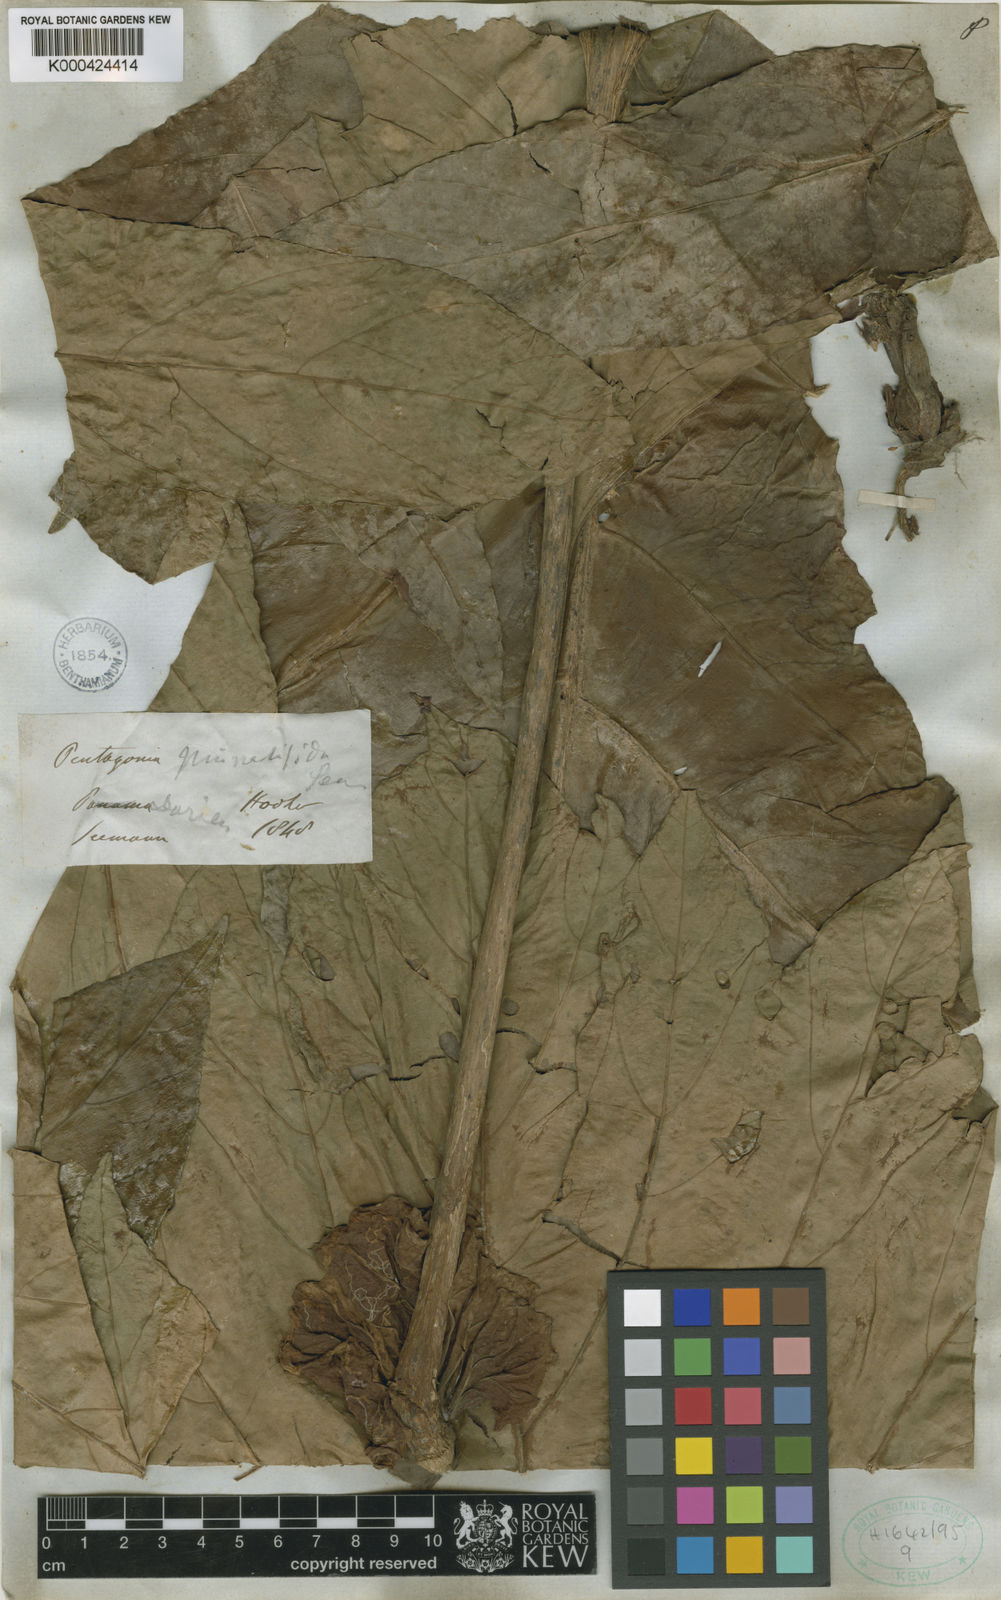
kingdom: Plantae
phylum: Tracheophyta
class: Magnoliopsida
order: Gentianales
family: Rubiaceae
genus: Pentagonia
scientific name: Pentagonia pinnatifida
